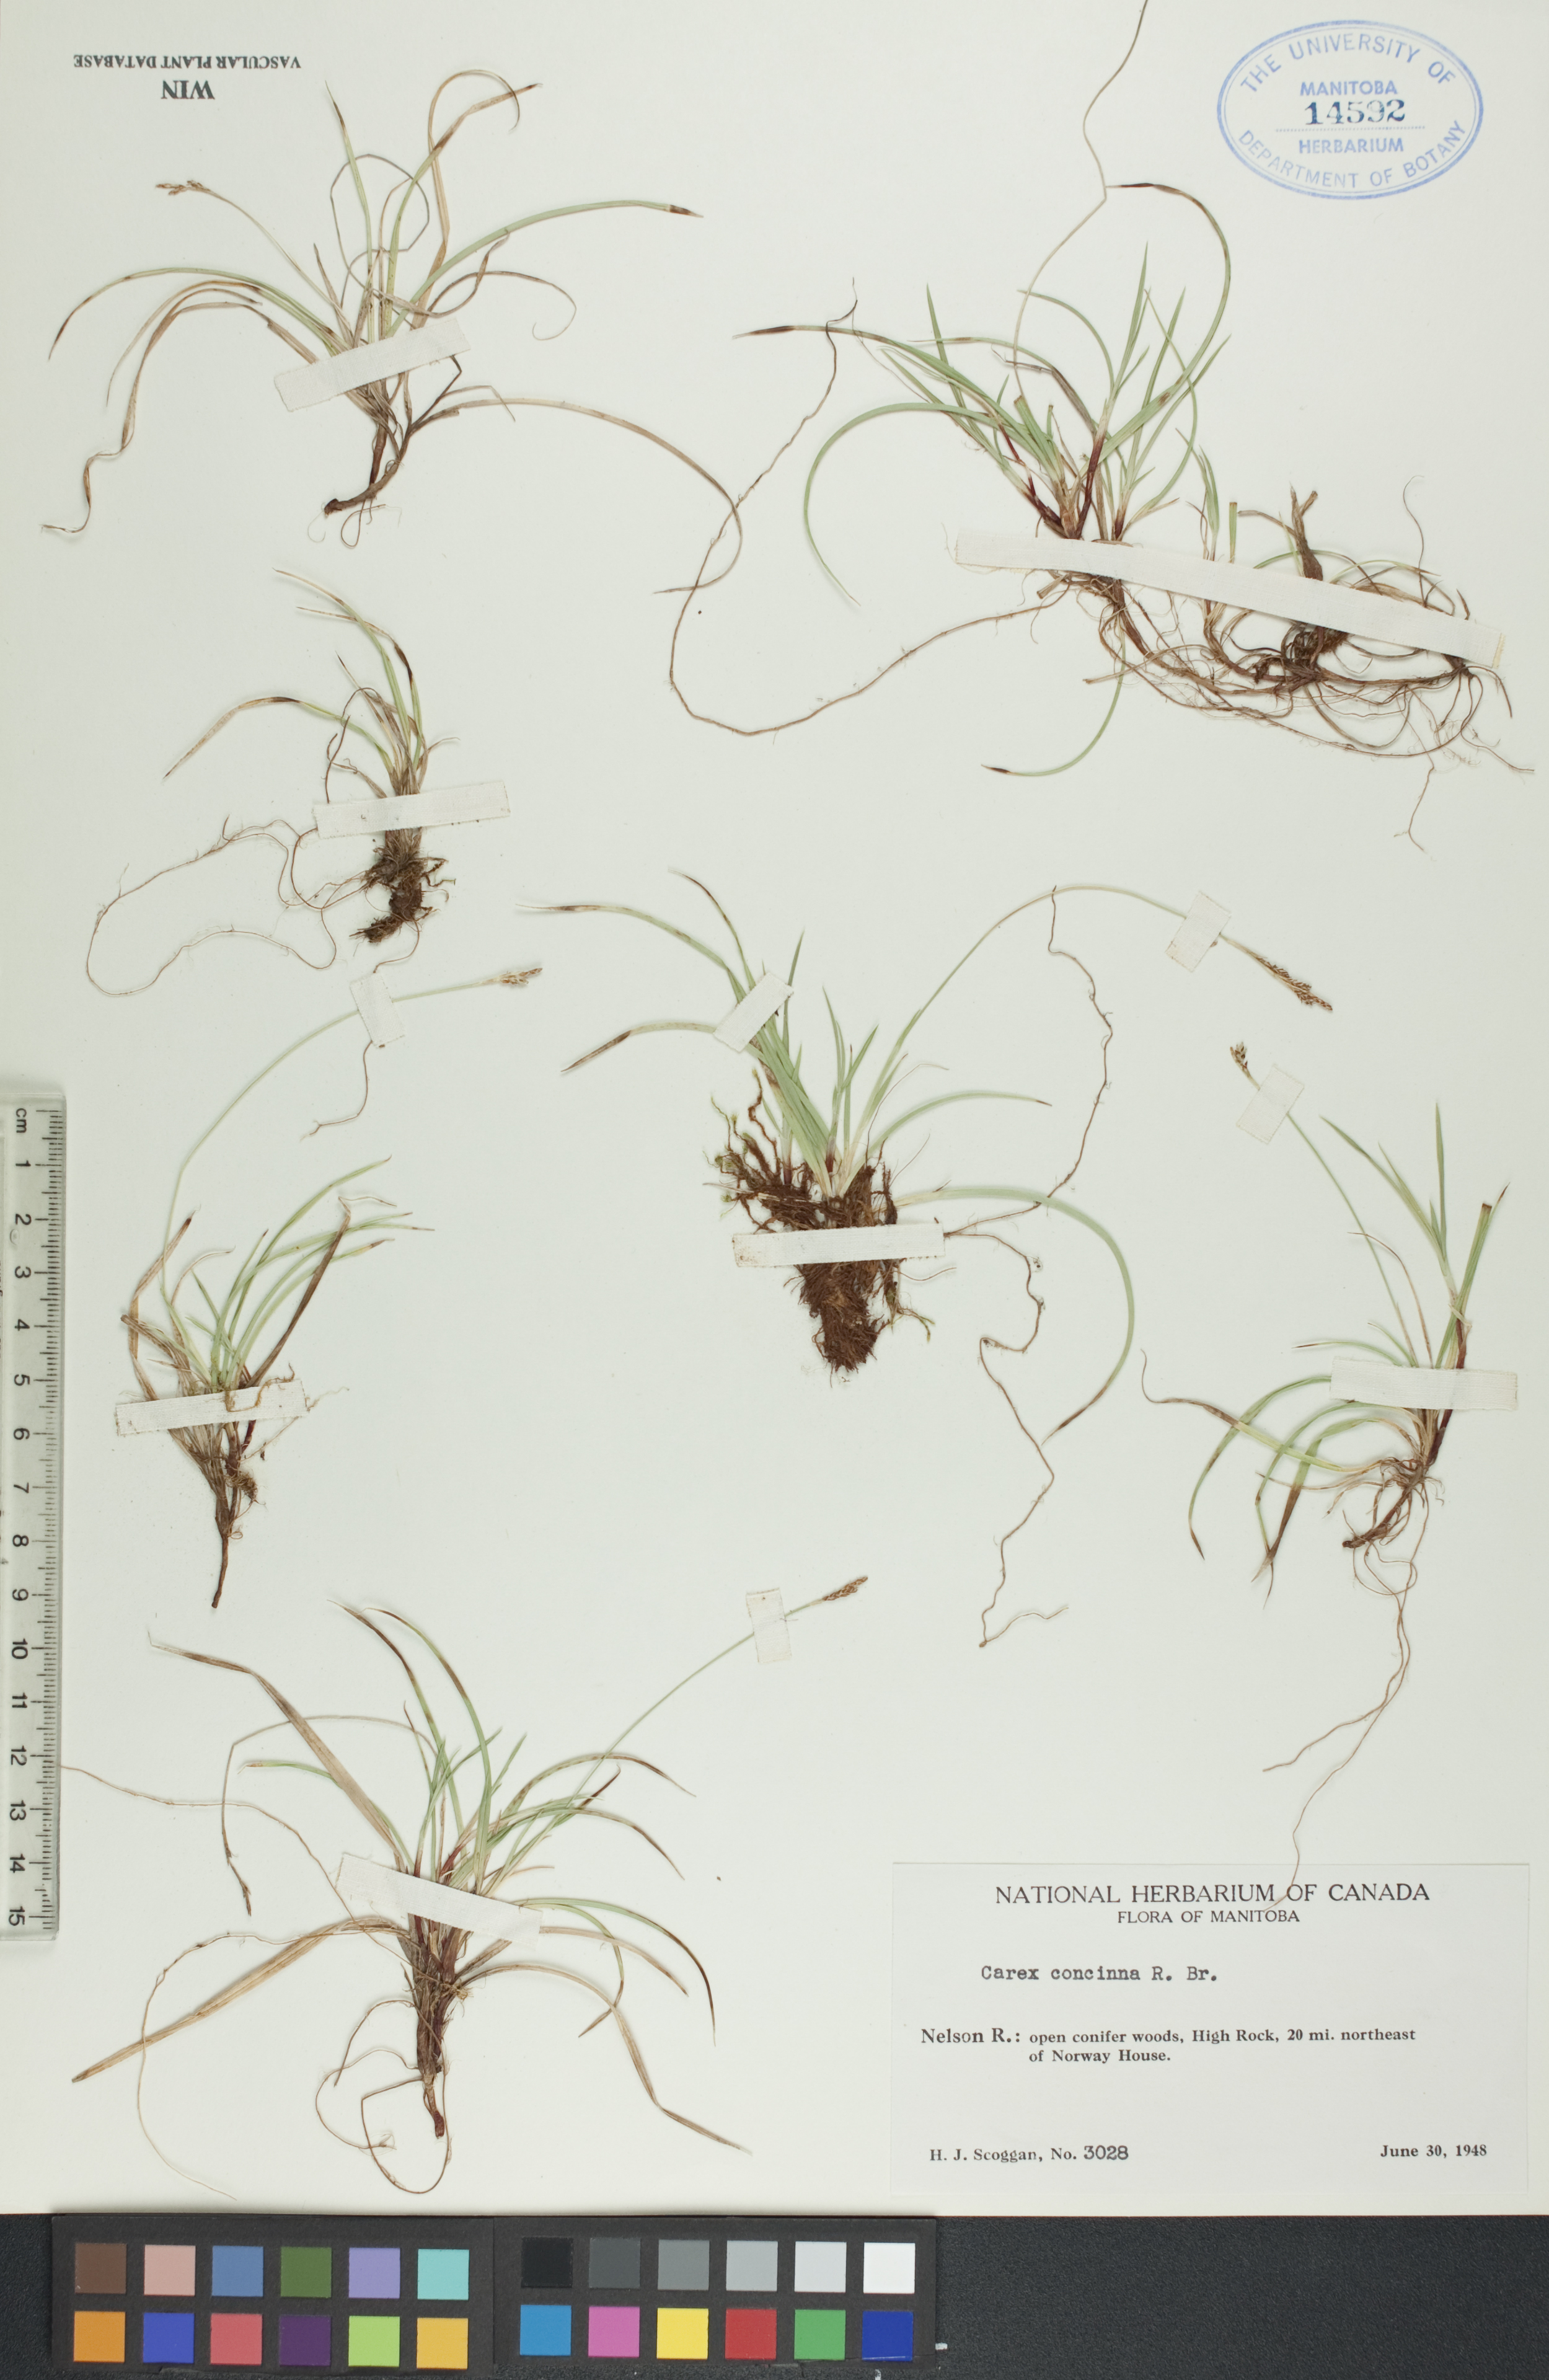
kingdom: Plantae
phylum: Tracheophyta
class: Liliopsida
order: Poales
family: Cyperaceae
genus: Carex
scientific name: Carex concinna
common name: Beautiful sedge
